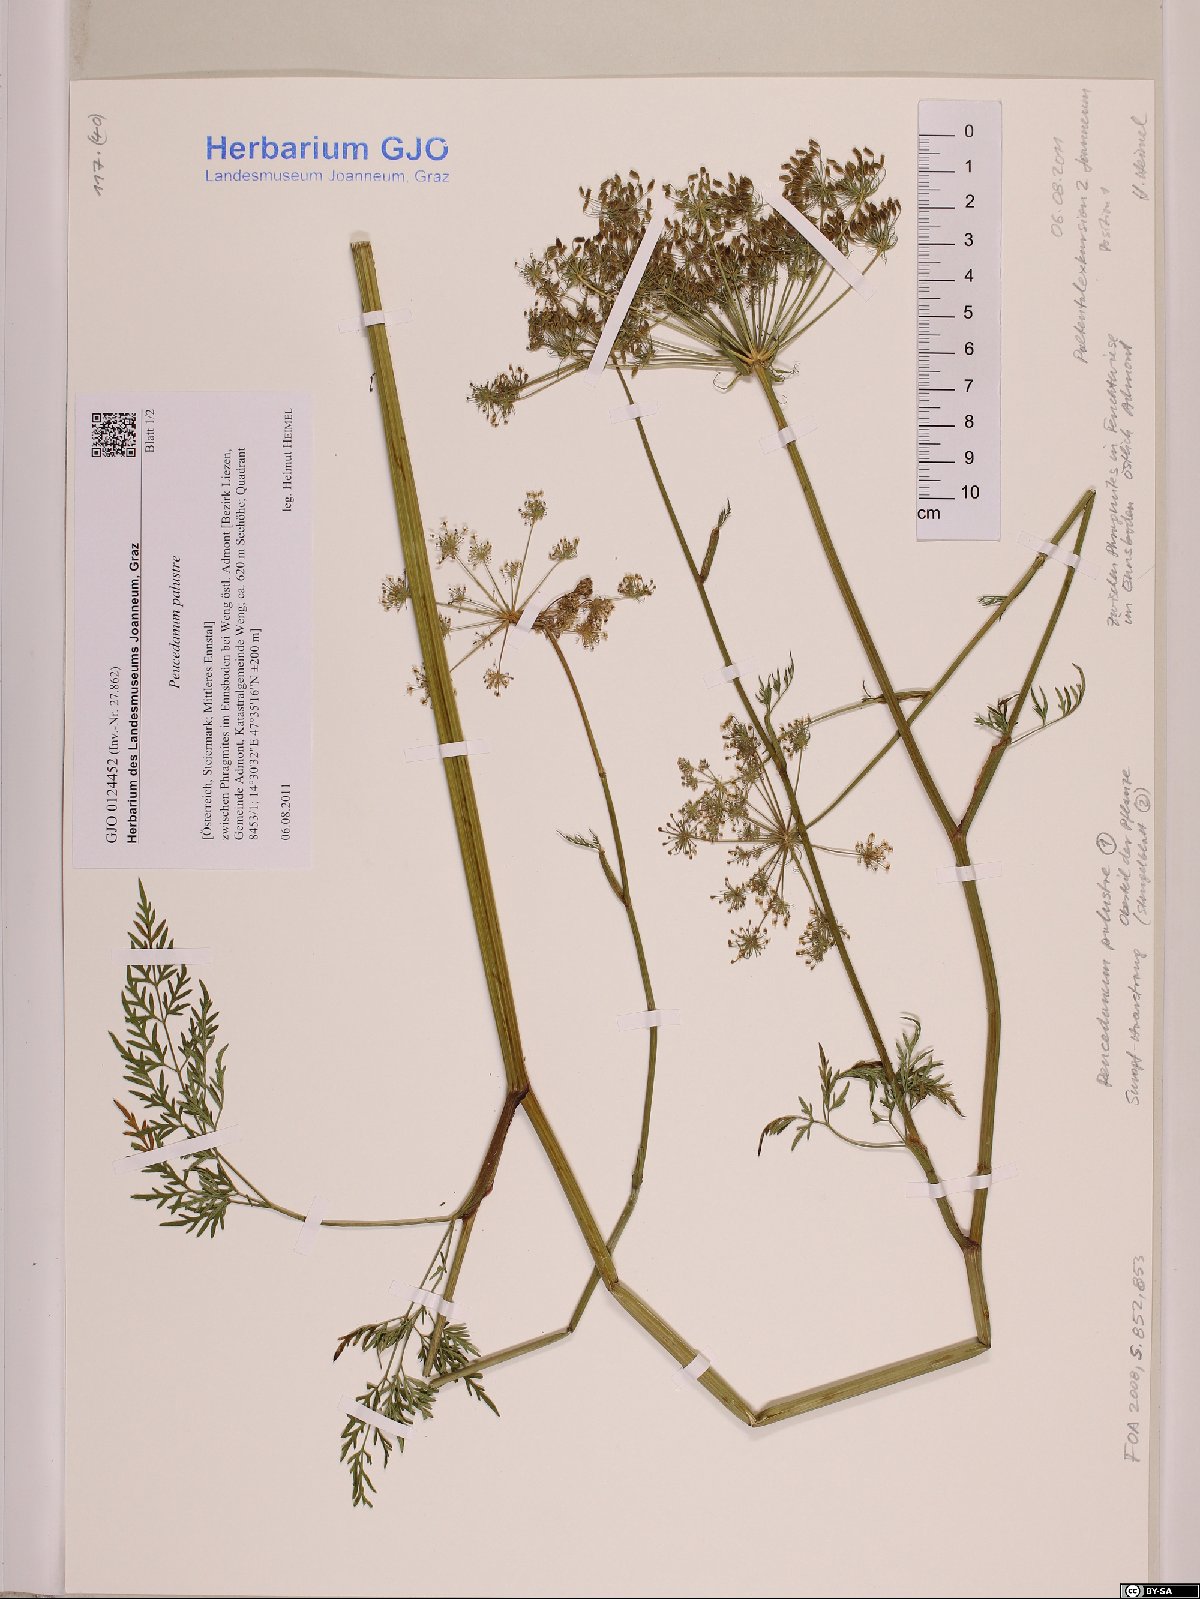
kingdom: Plantae
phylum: Tracheophyta
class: Magnoliopsida
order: Apiales
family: Apiaceae
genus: Thysselinum
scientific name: Thysselinum palustre
